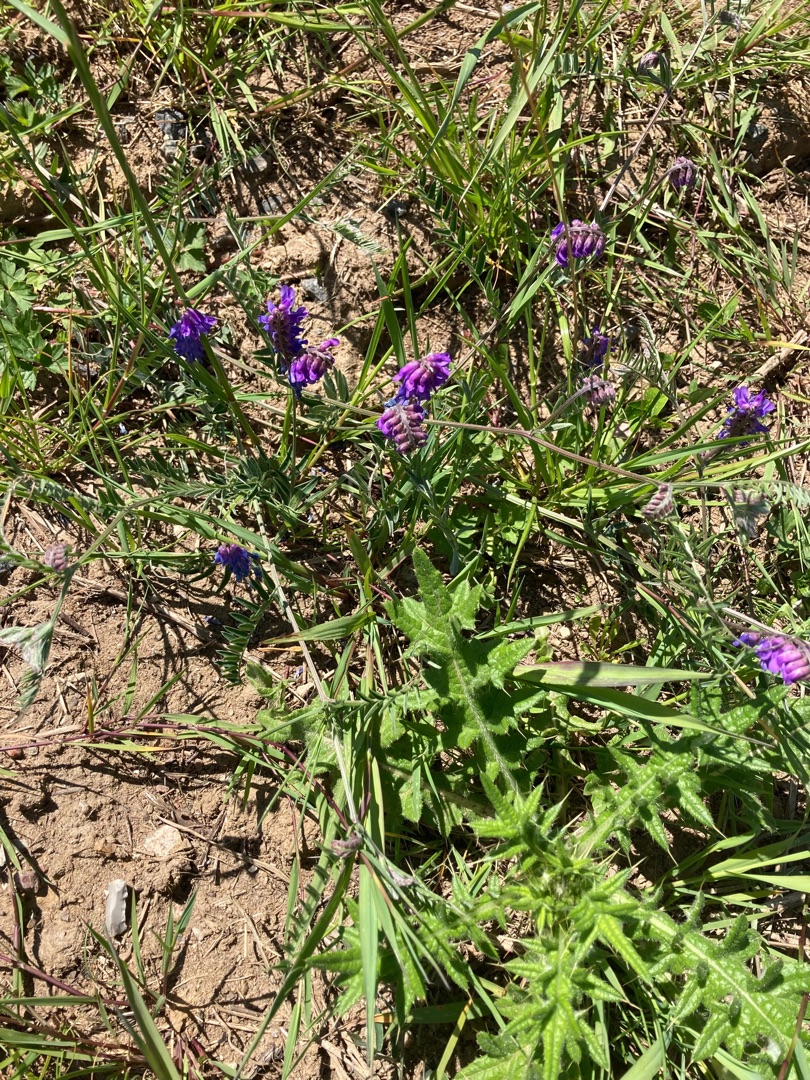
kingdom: Plantae
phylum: Tracheophyta
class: Magnoliopsida
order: Fabales
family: Fabaceae
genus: Vicia
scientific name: Vicia cracca
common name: Muse-vikke
